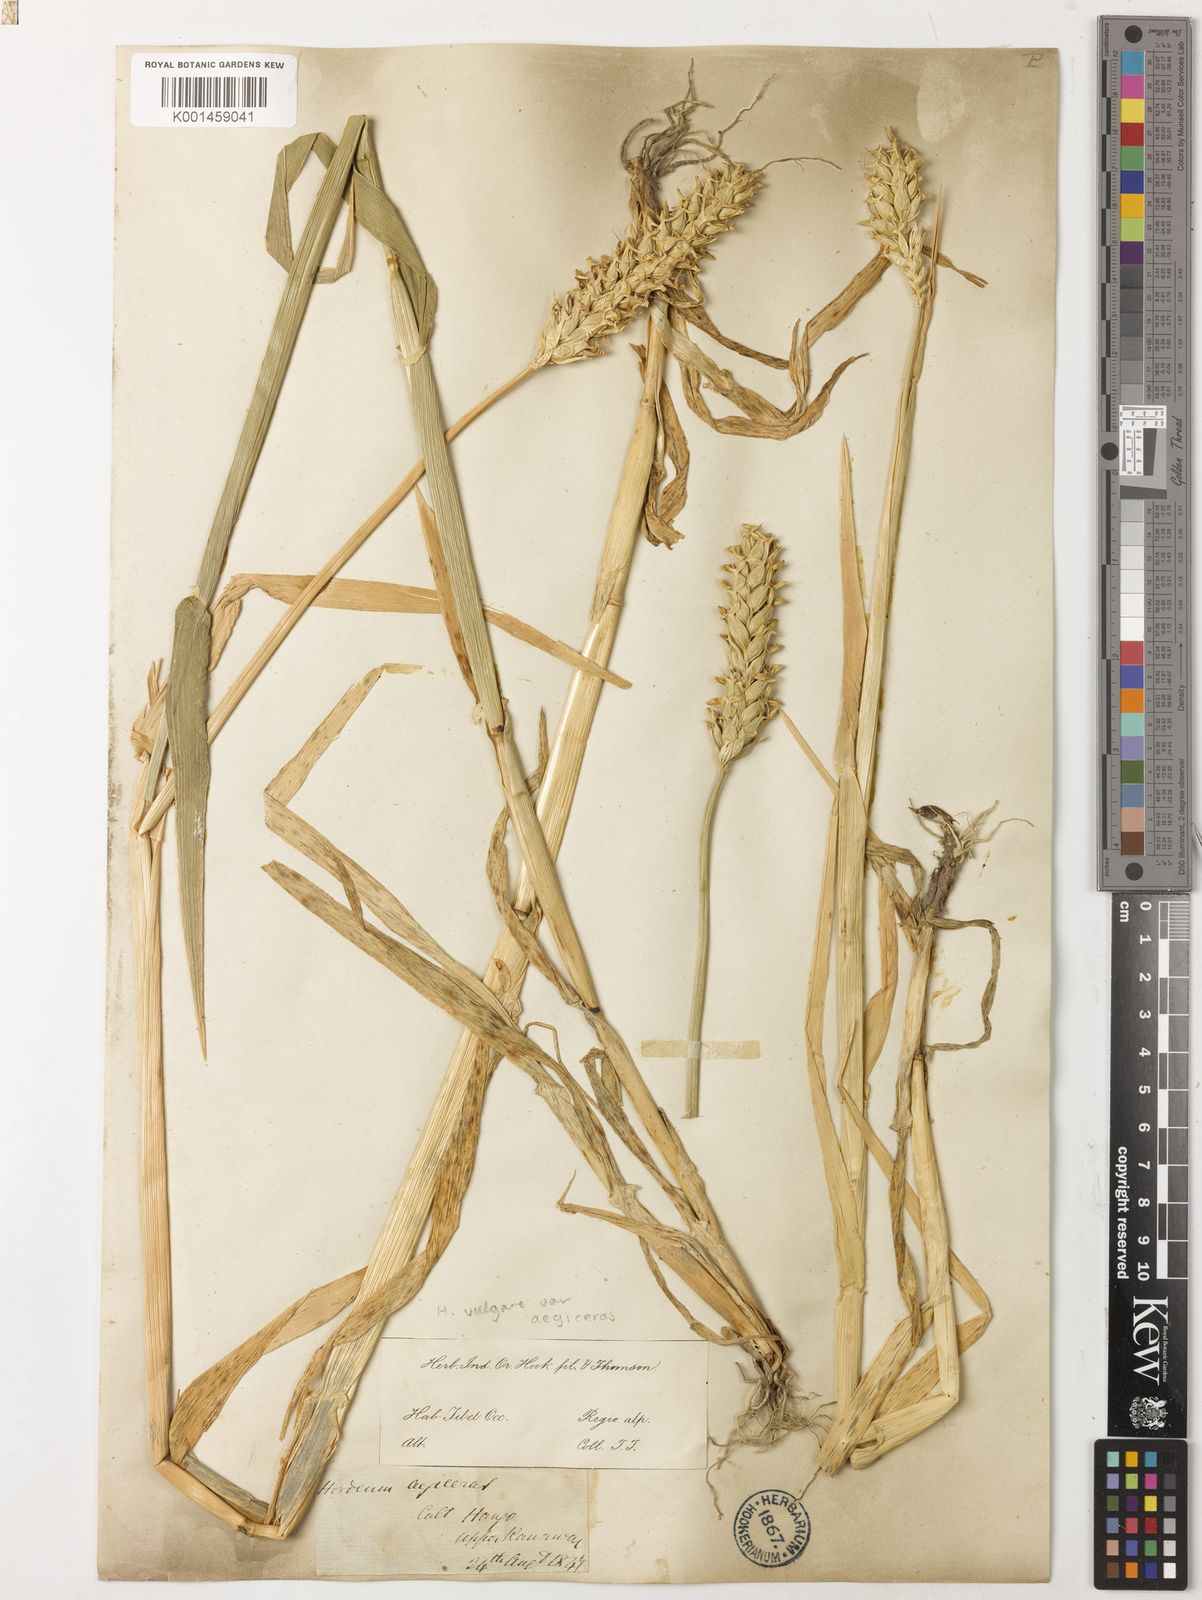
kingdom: Plantae
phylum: Tracheophyta
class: Liliopsida
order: Poales
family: Poaceae
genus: Hordeum
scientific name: Hordeum vulgare
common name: Common barley
